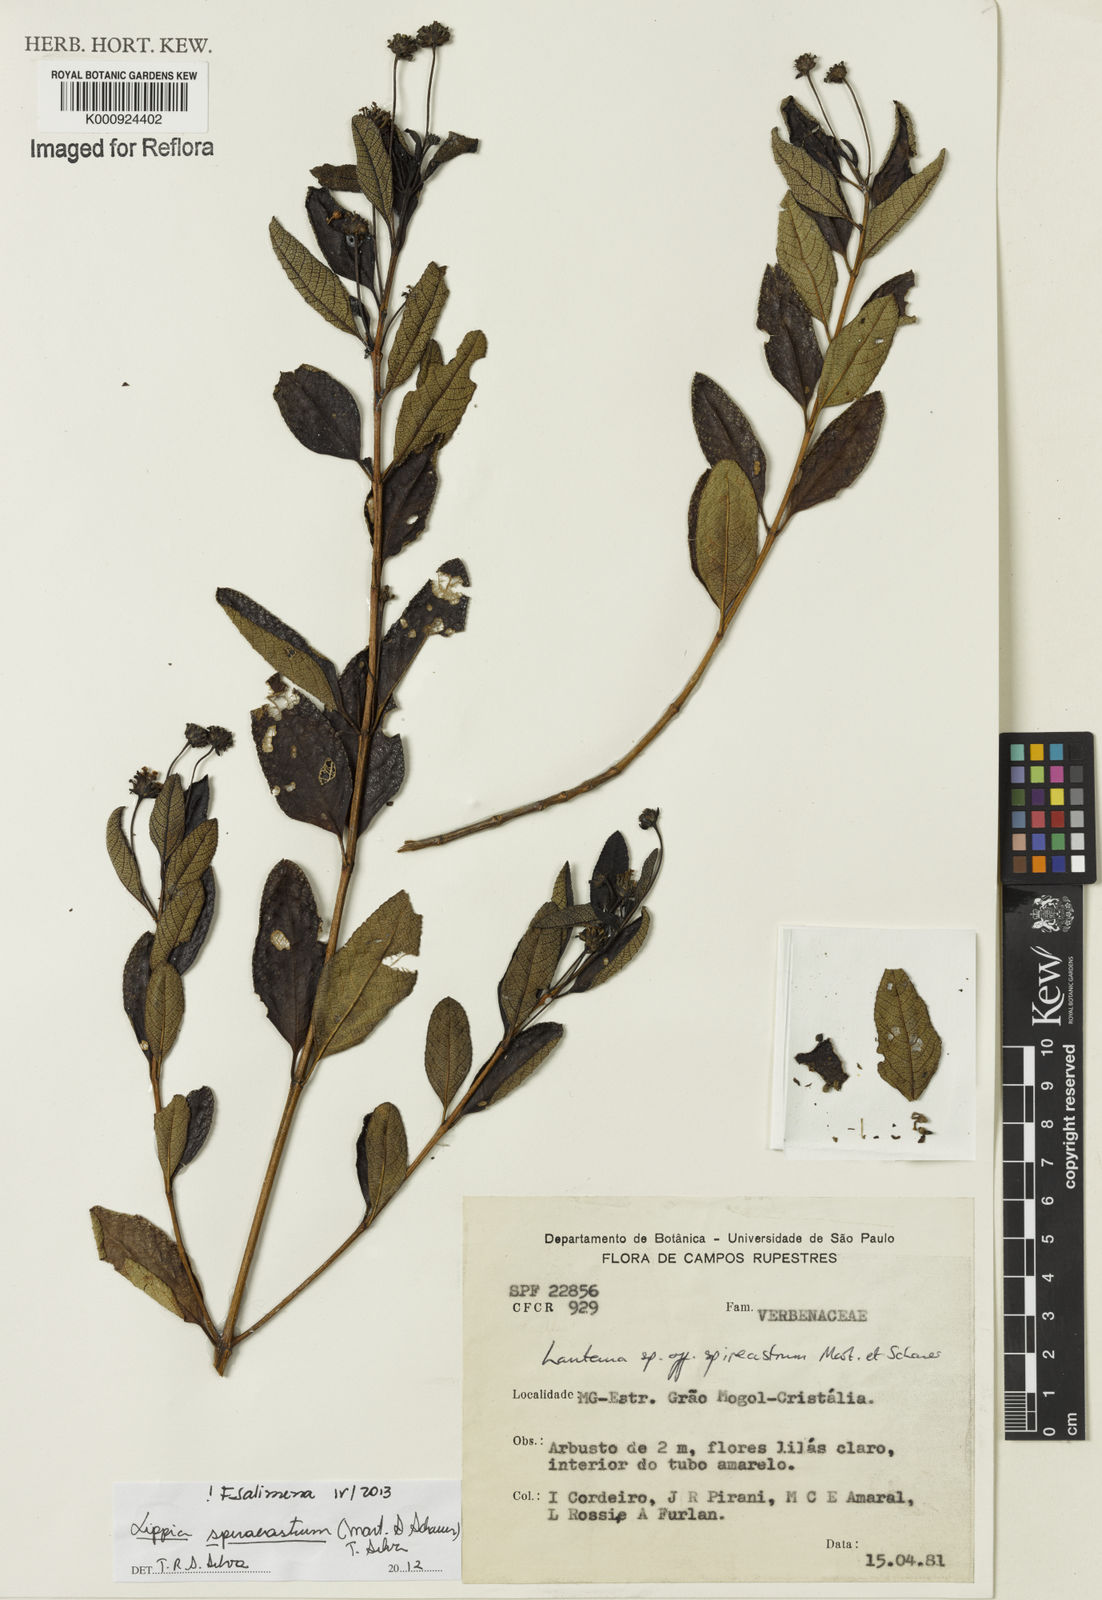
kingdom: Plantae
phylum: Tracheophyta
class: Magnoliopsida
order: Lamiales
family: Verbenaceae
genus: Lippia
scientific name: Lippia spiraeastrum
